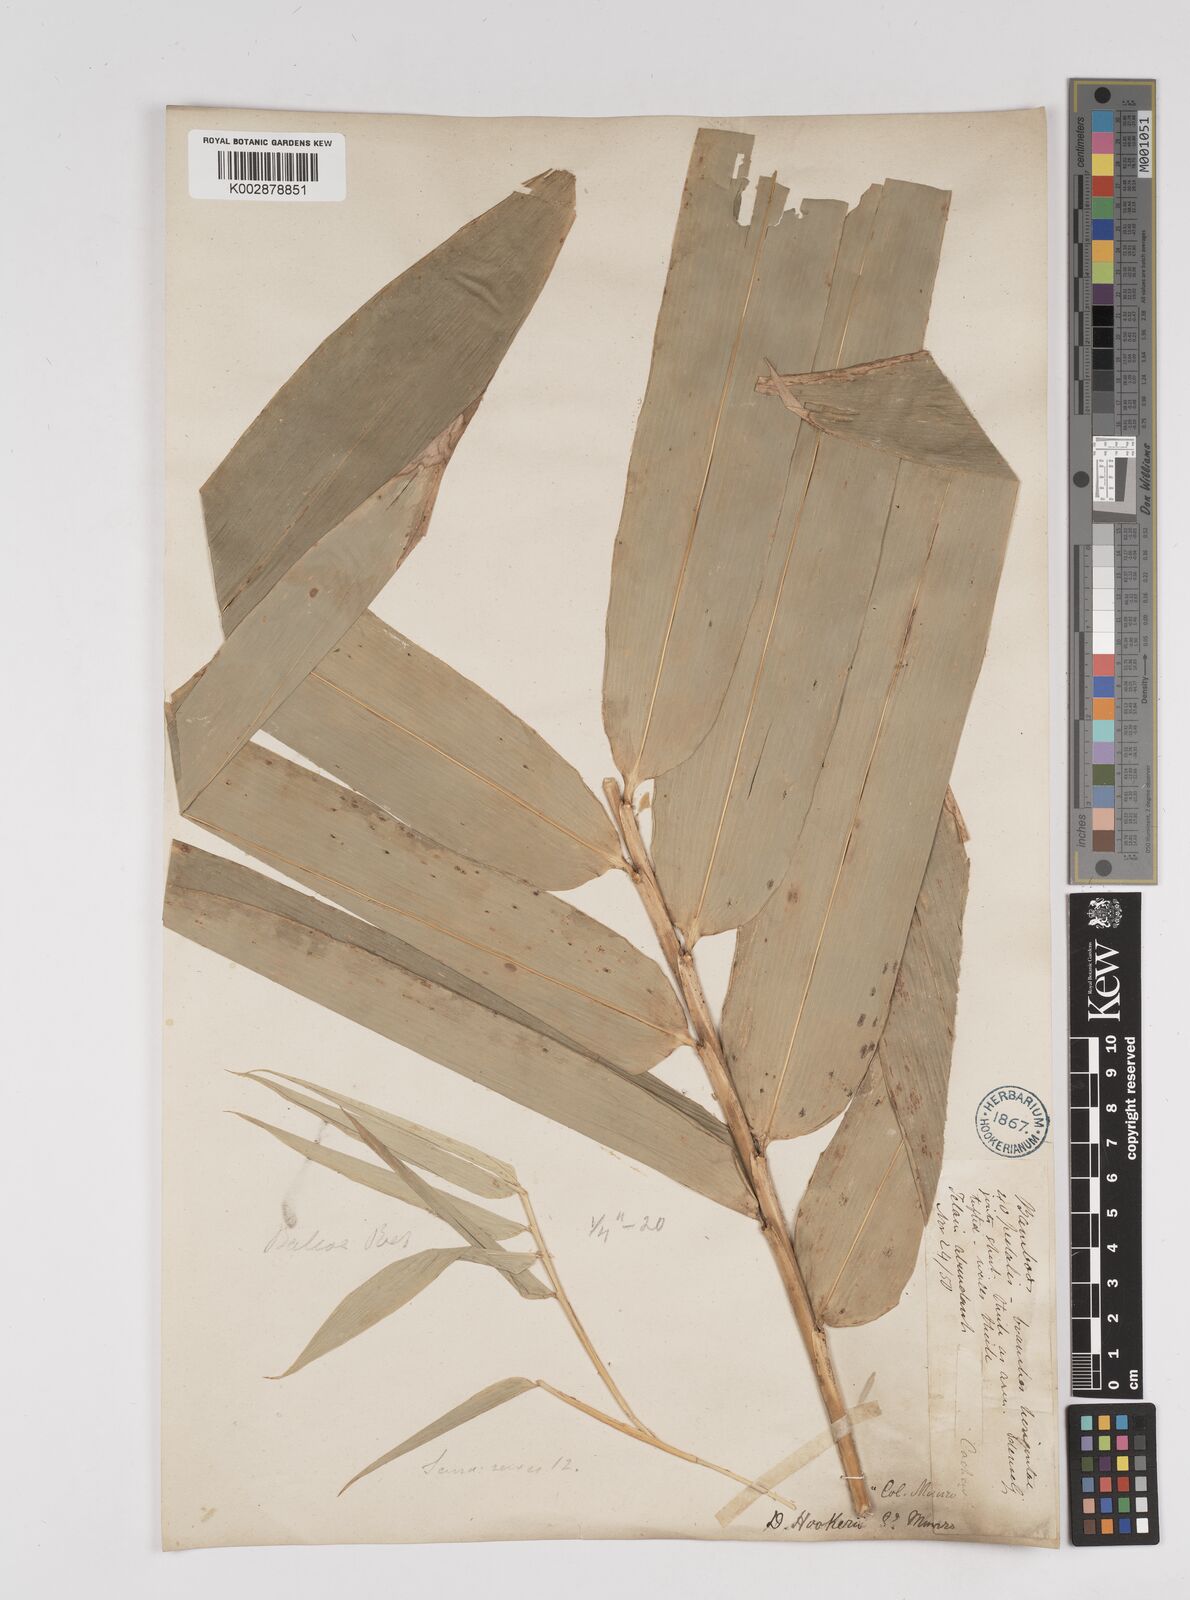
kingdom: Plantae
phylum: Tracheophyta
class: Liliopsida
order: Poales
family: Poaceae
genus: Dendrocalamus
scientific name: Dendrocalamus hookeri
